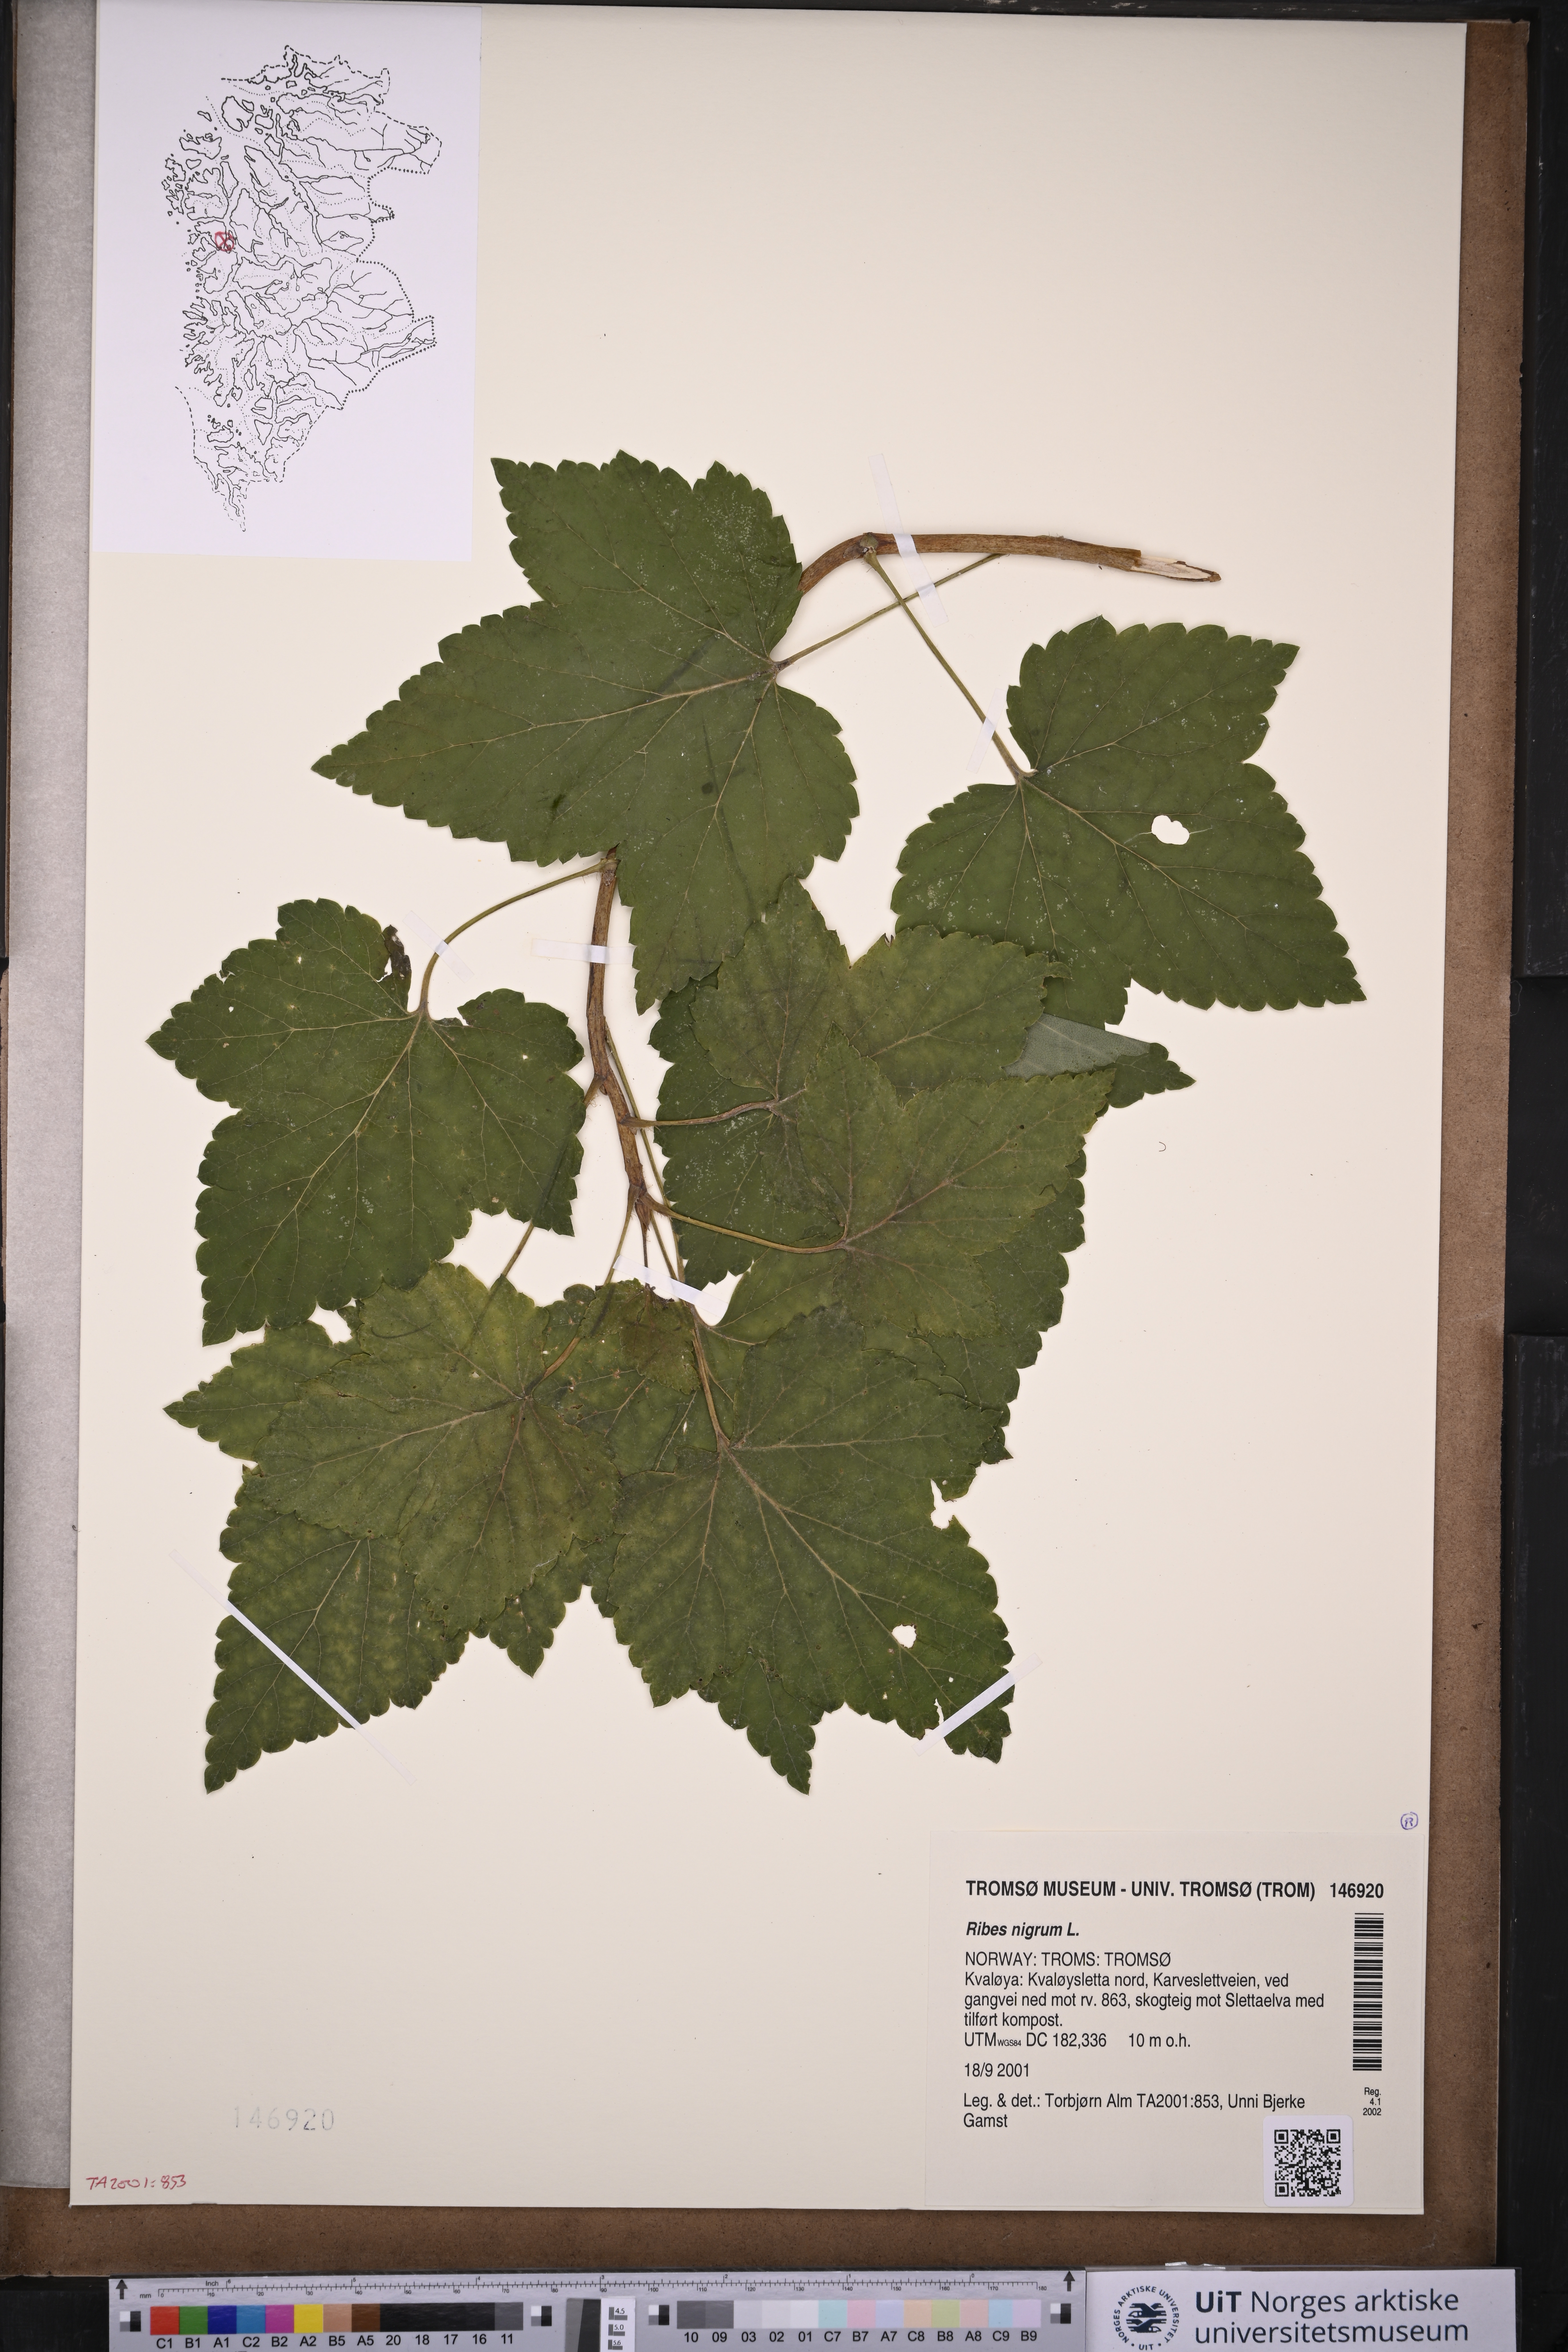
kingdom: Plantae
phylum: Tracheophyta
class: Magnoliopsida
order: Saxifragales
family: Grossulariaceae
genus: Ribes
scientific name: Ribes nigrum
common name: Black currant
